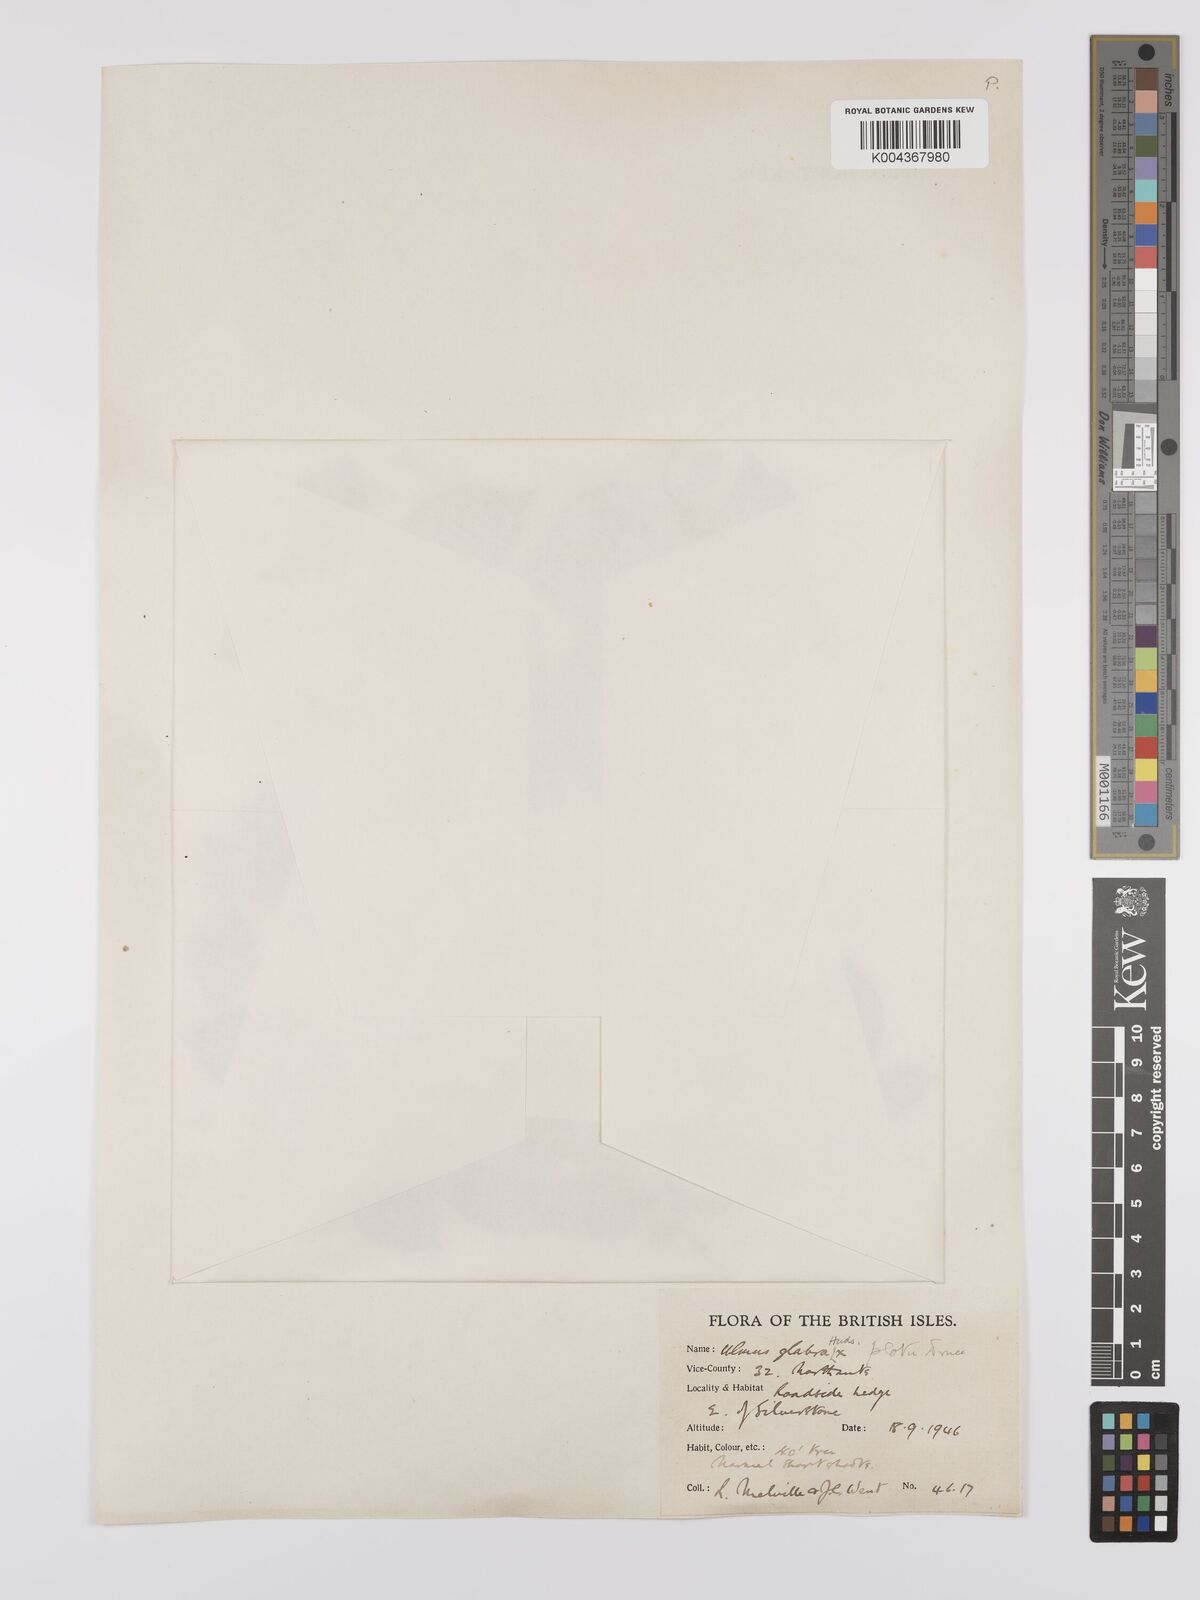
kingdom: Plantae
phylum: Tracheophyta
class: Magnoliopsida
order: Rosales
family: Ulmaceae
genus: Ulmus
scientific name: Ulmus
